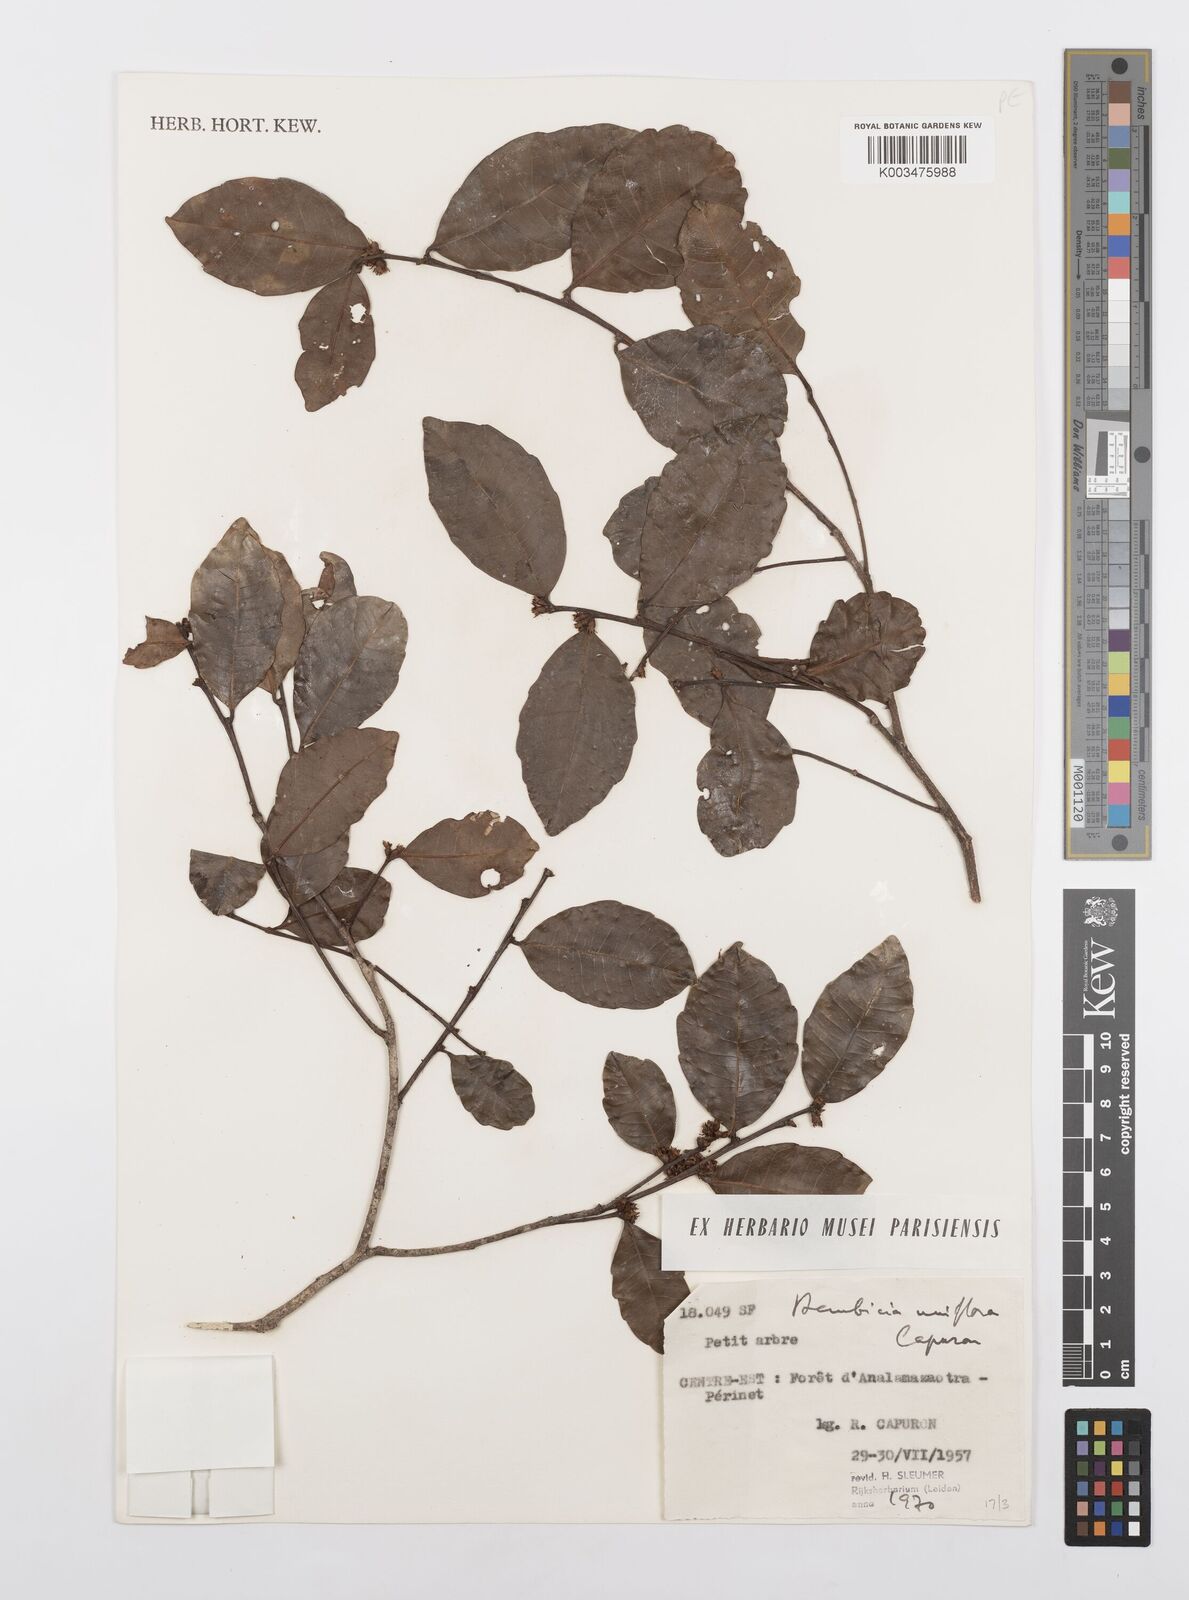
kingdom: Plantae
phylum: Tracheophyta
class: Magnoliopsida
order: Malpighiales
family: Salicaceae
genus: Bembicia
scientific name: Bembicia
